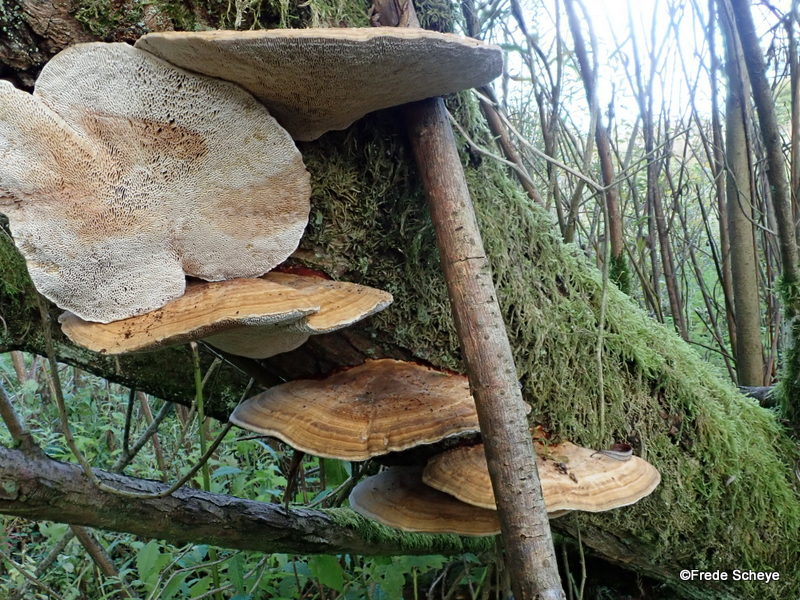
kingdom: Fungi
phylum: Basidiomycota
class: Agaricomycetes
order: Polyporales
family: Polyporaceae
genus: Daedaleopsis
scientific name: Daedaleopsis confragosa
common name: rødmende læderporesvamp
